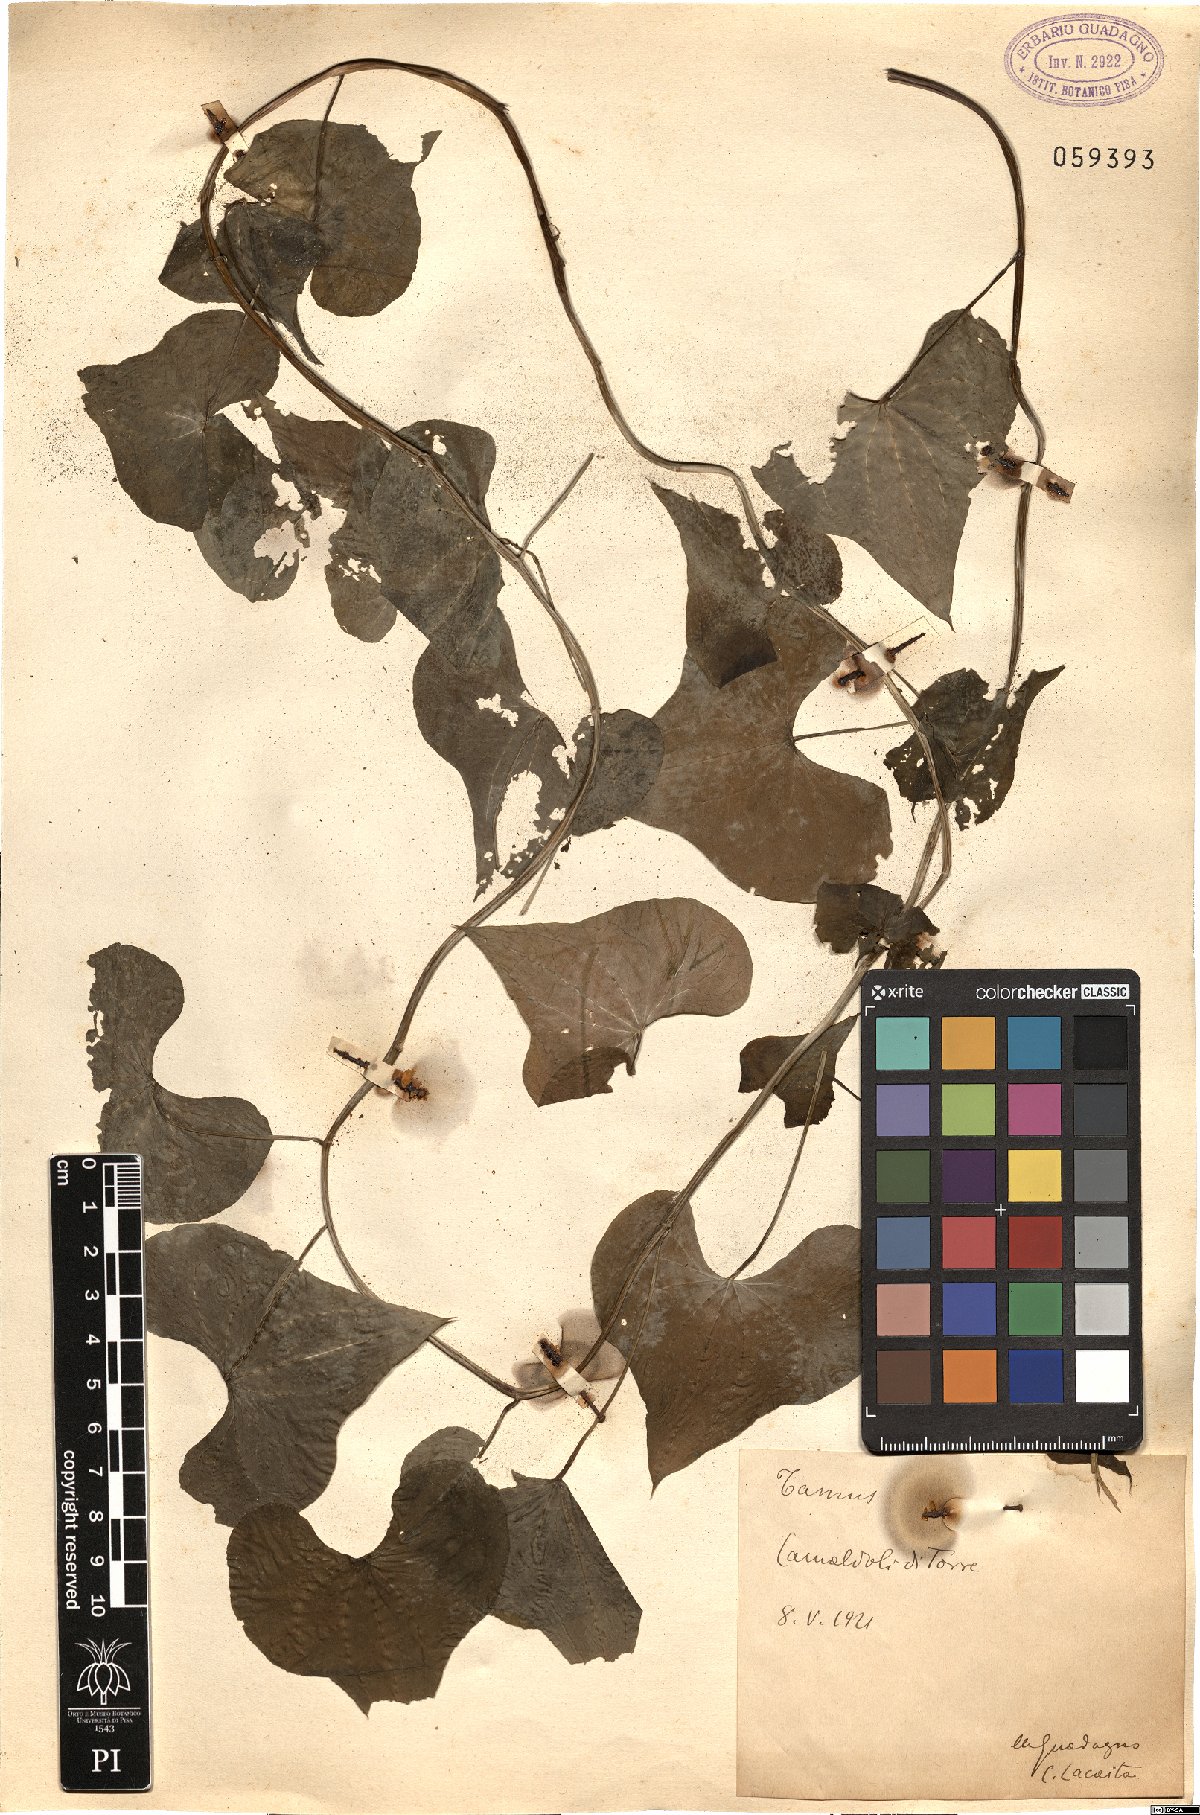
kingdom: Plantae
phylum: Tracheophyta
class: Liliopsida
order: Dioscoreales
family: Dioscoreaceae
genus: Dioscorea
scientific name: Dioscorea
